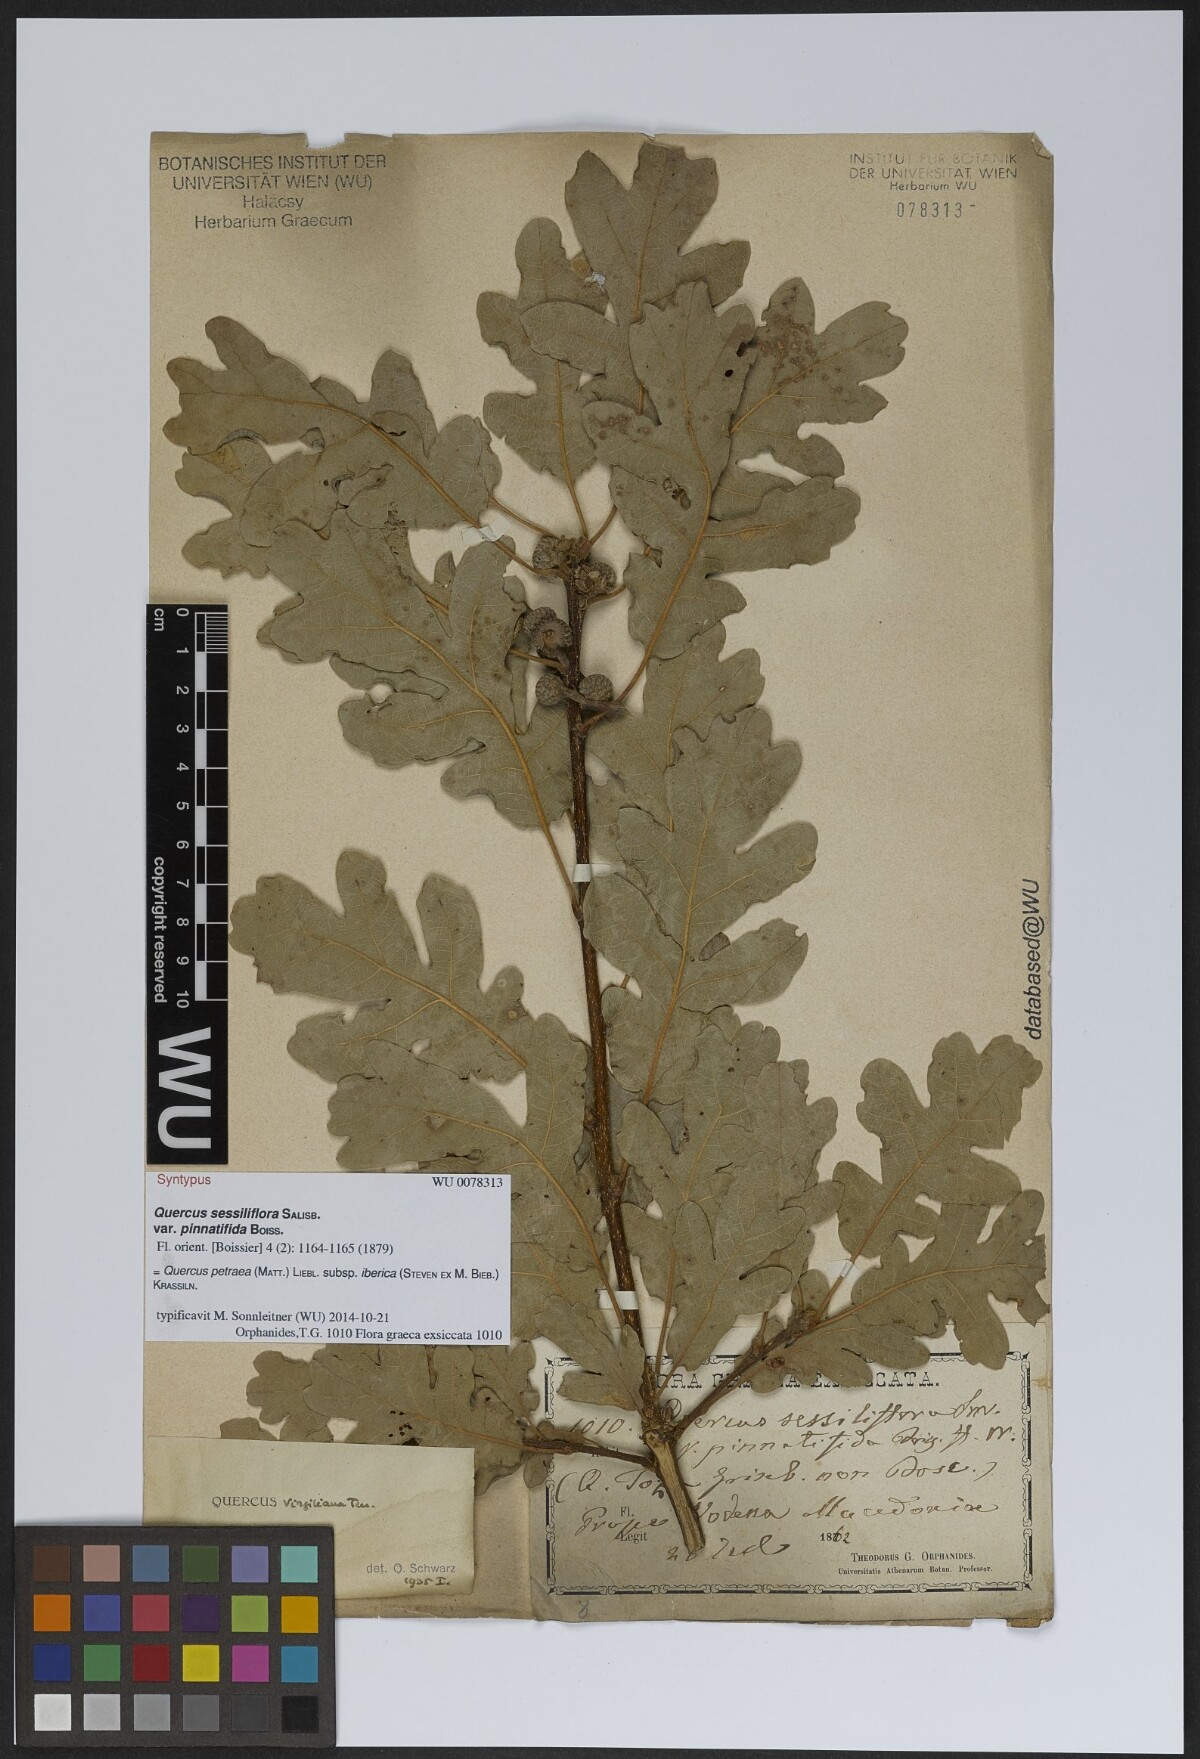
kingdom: Plantae
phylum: Tracheophyta
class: Magnoliopsida
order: Fagales
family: Fagaceae
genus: Quercus
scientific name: Quercus petraea
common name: Sessile oak
